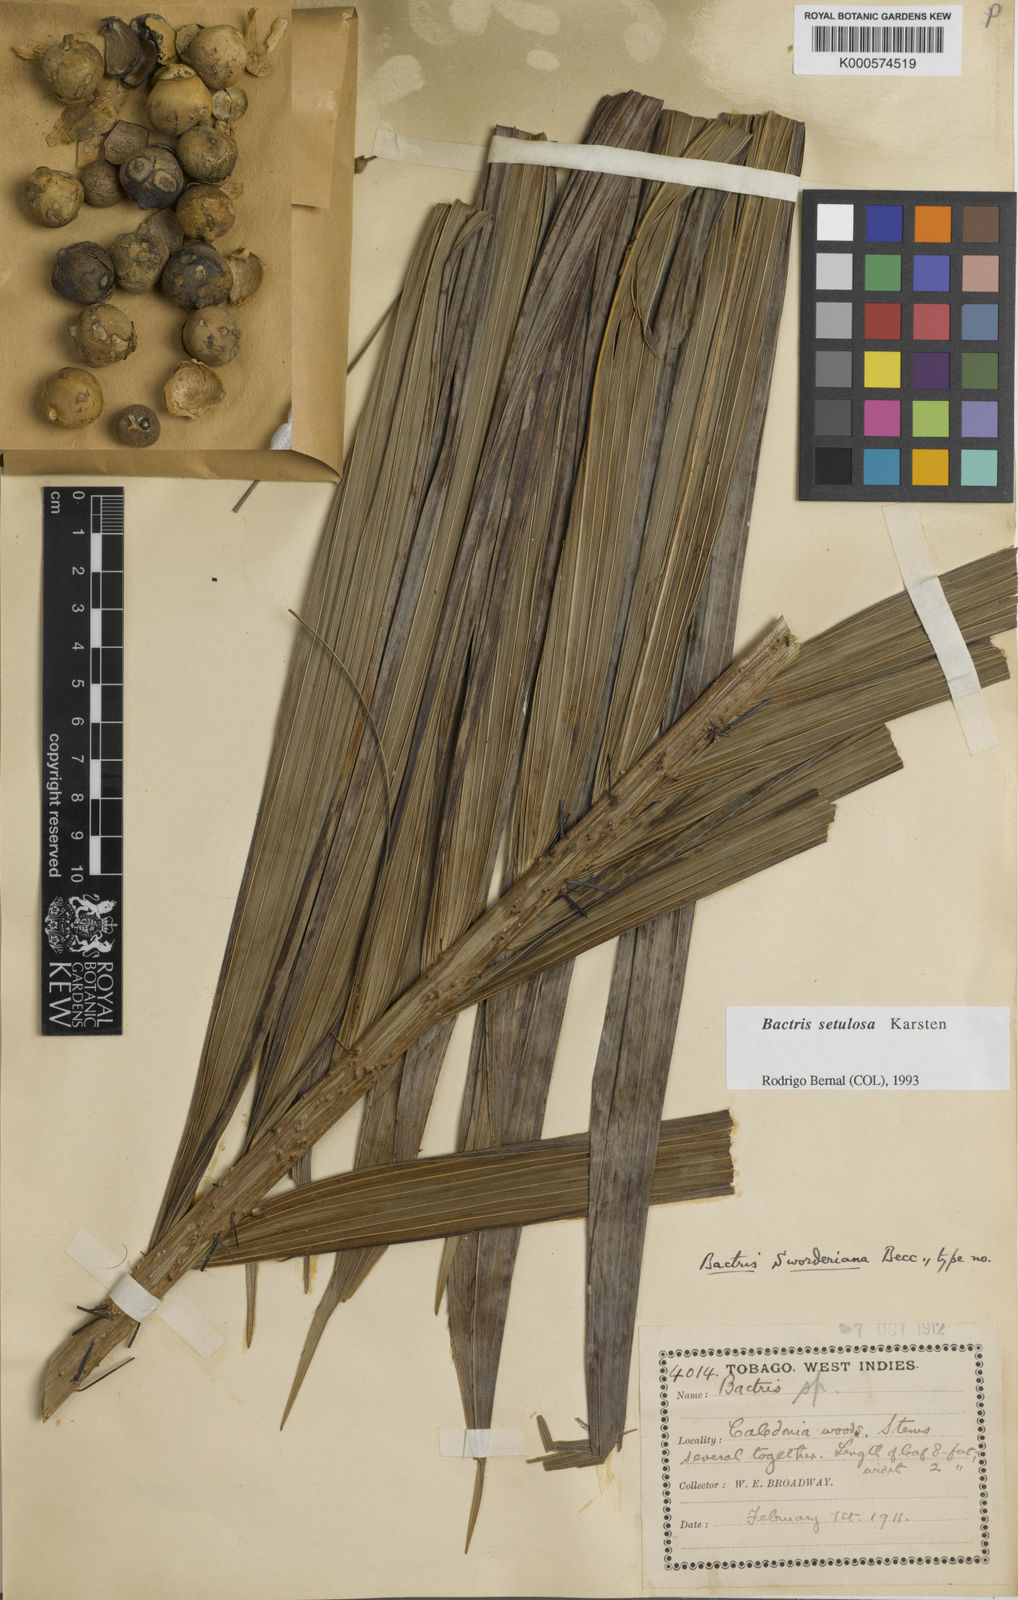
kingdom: Plantae
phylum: Tracheophyta
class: Liliopsida
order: Arecales
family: Arecaceae
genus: Bactris
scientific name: Bactris setulosa
